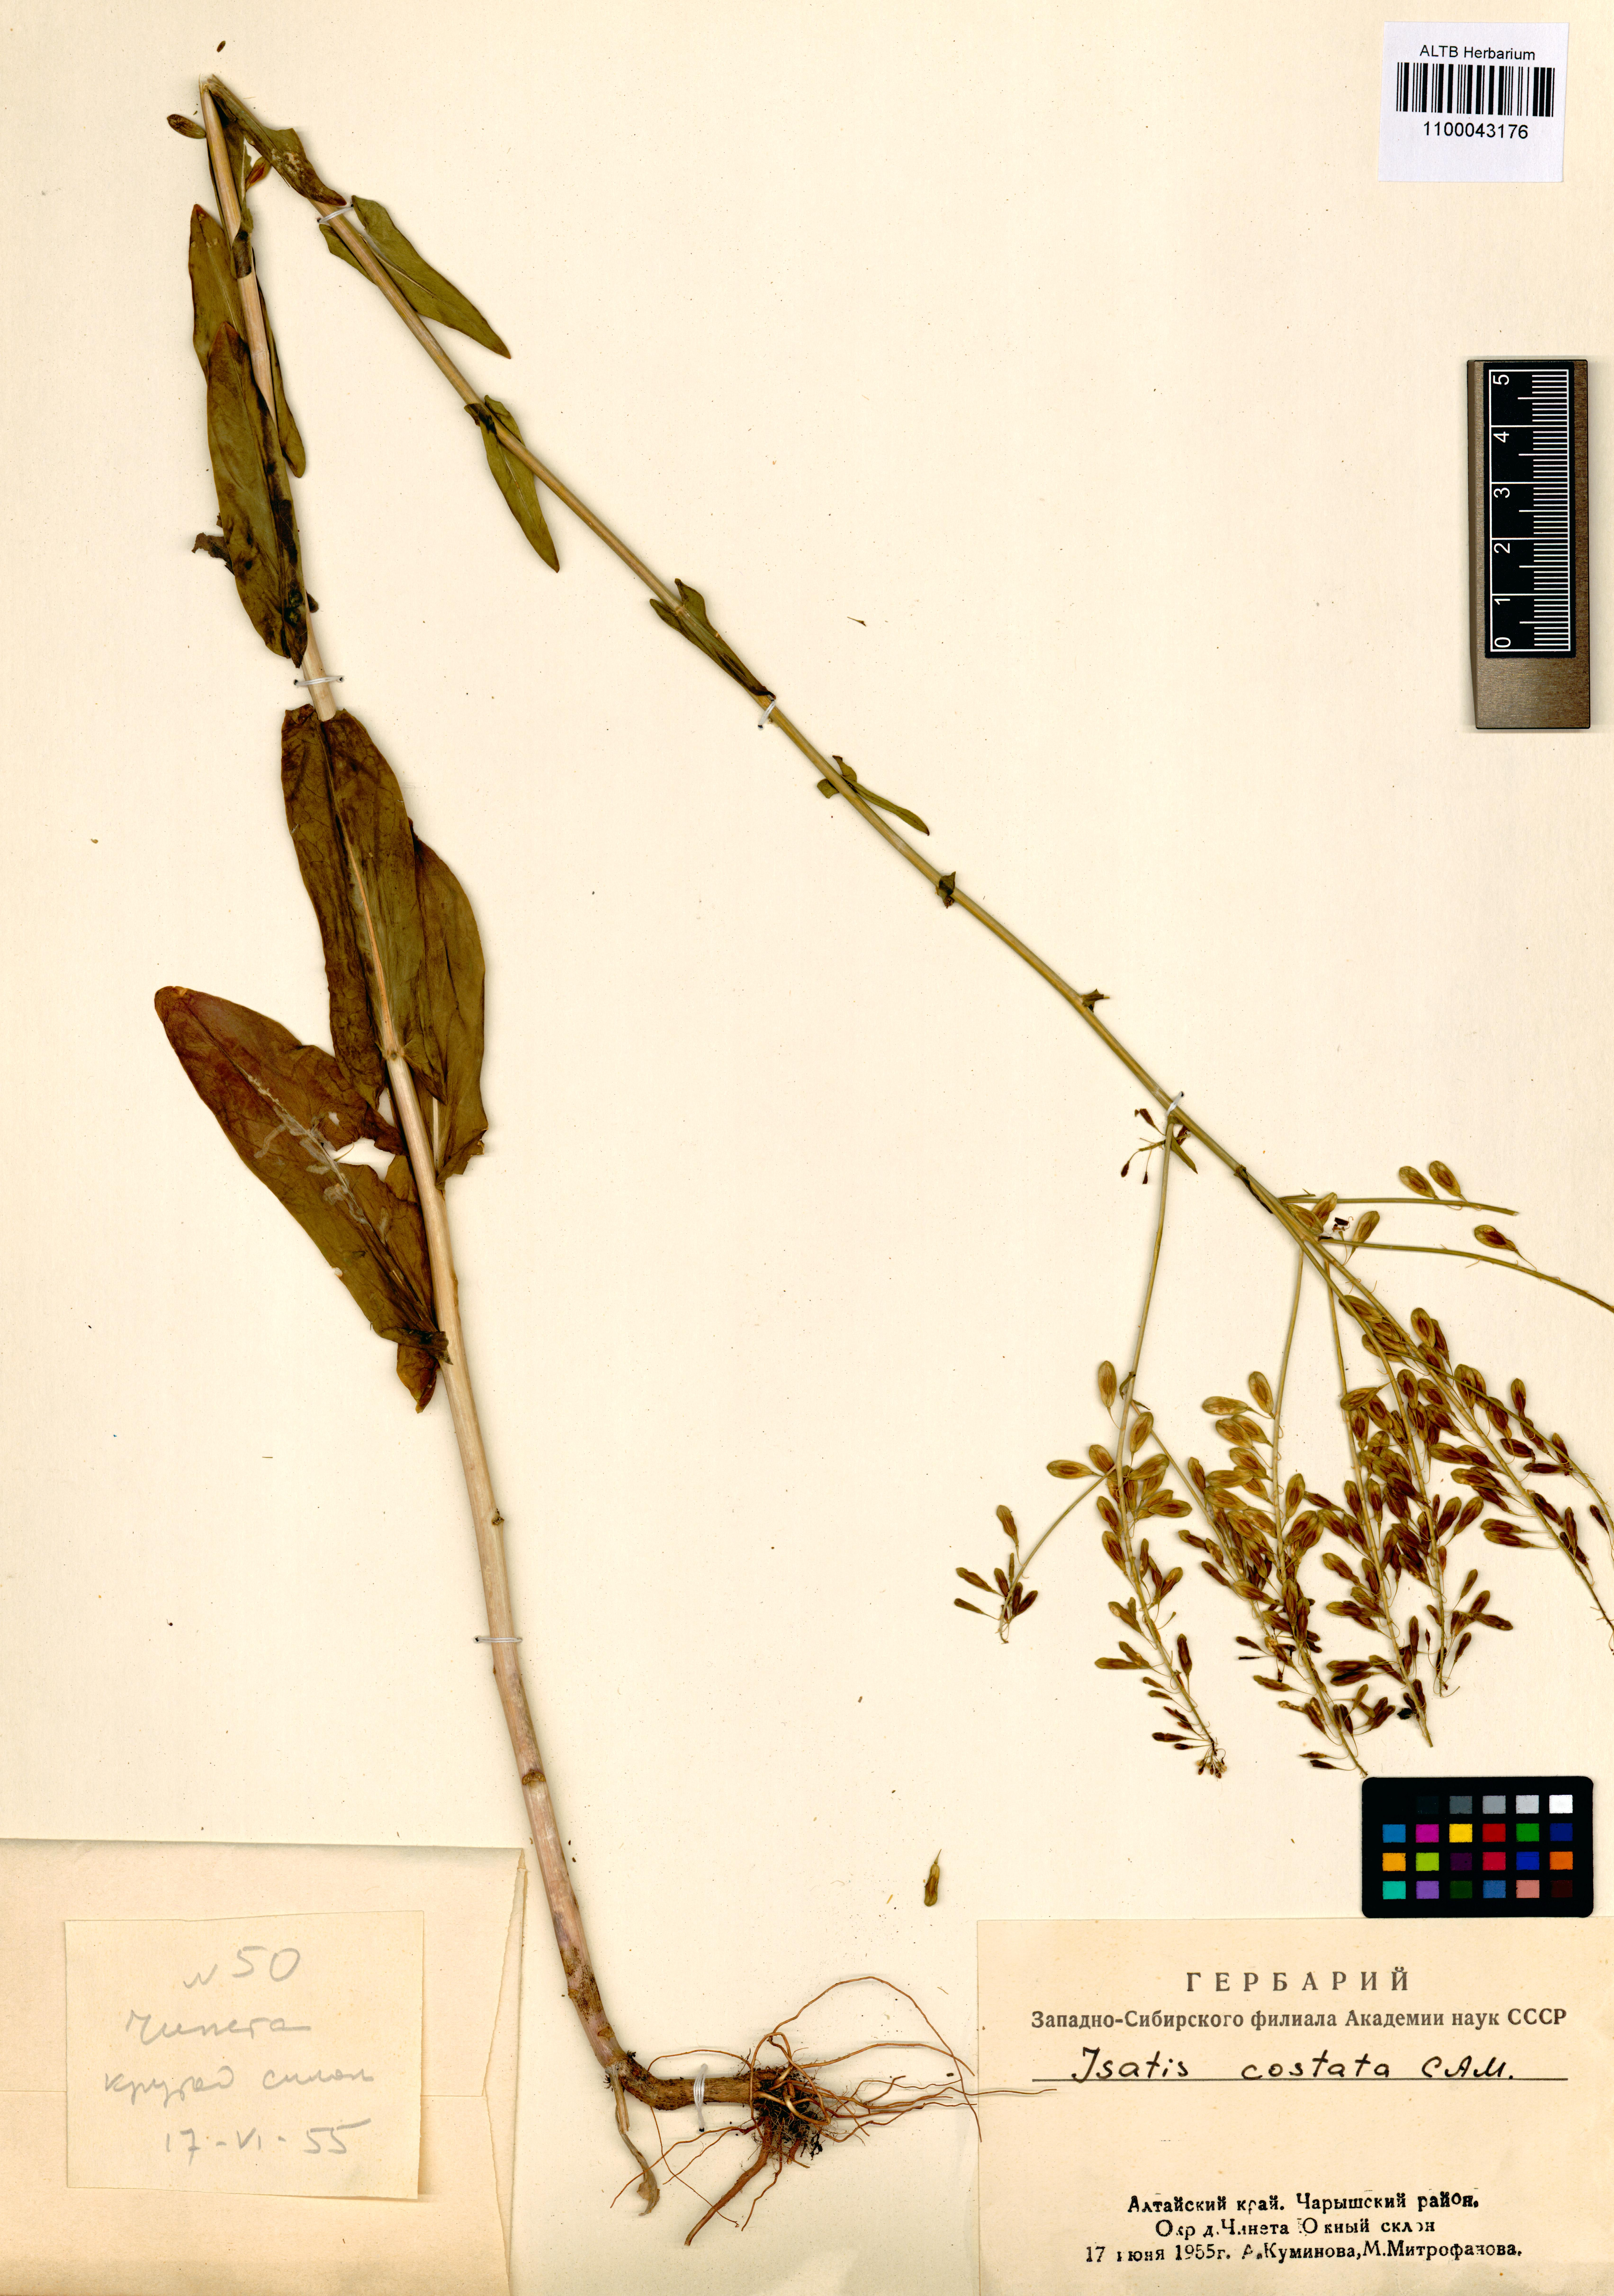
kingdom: Plantae
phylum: Tracheophyta
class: Magnoliopsida
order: Brassicales
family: Brassicaceae
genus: Isatis
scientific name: Isatis costata
